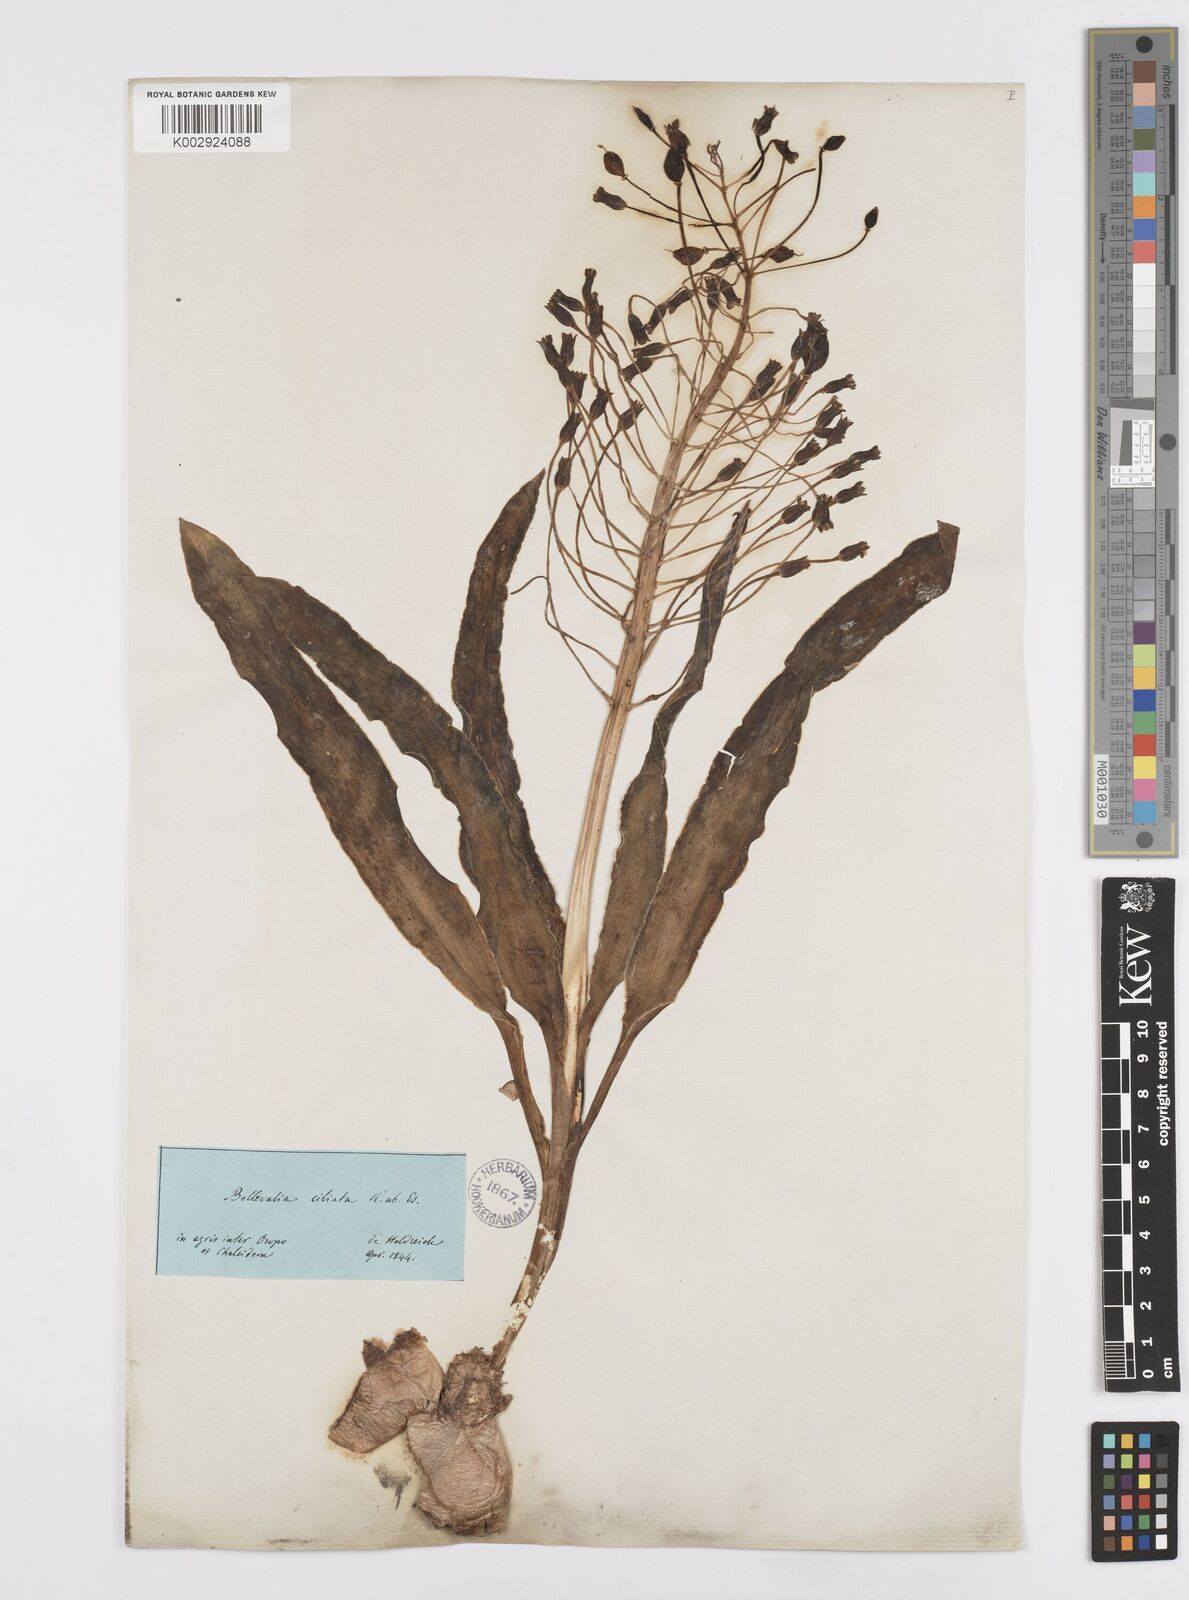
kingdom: Plantae
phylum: Tracheophyta
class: Liliopsida
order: Asparagales
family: Asparagaceae
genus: Bellevalia
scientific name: Bellevalia ciliata
